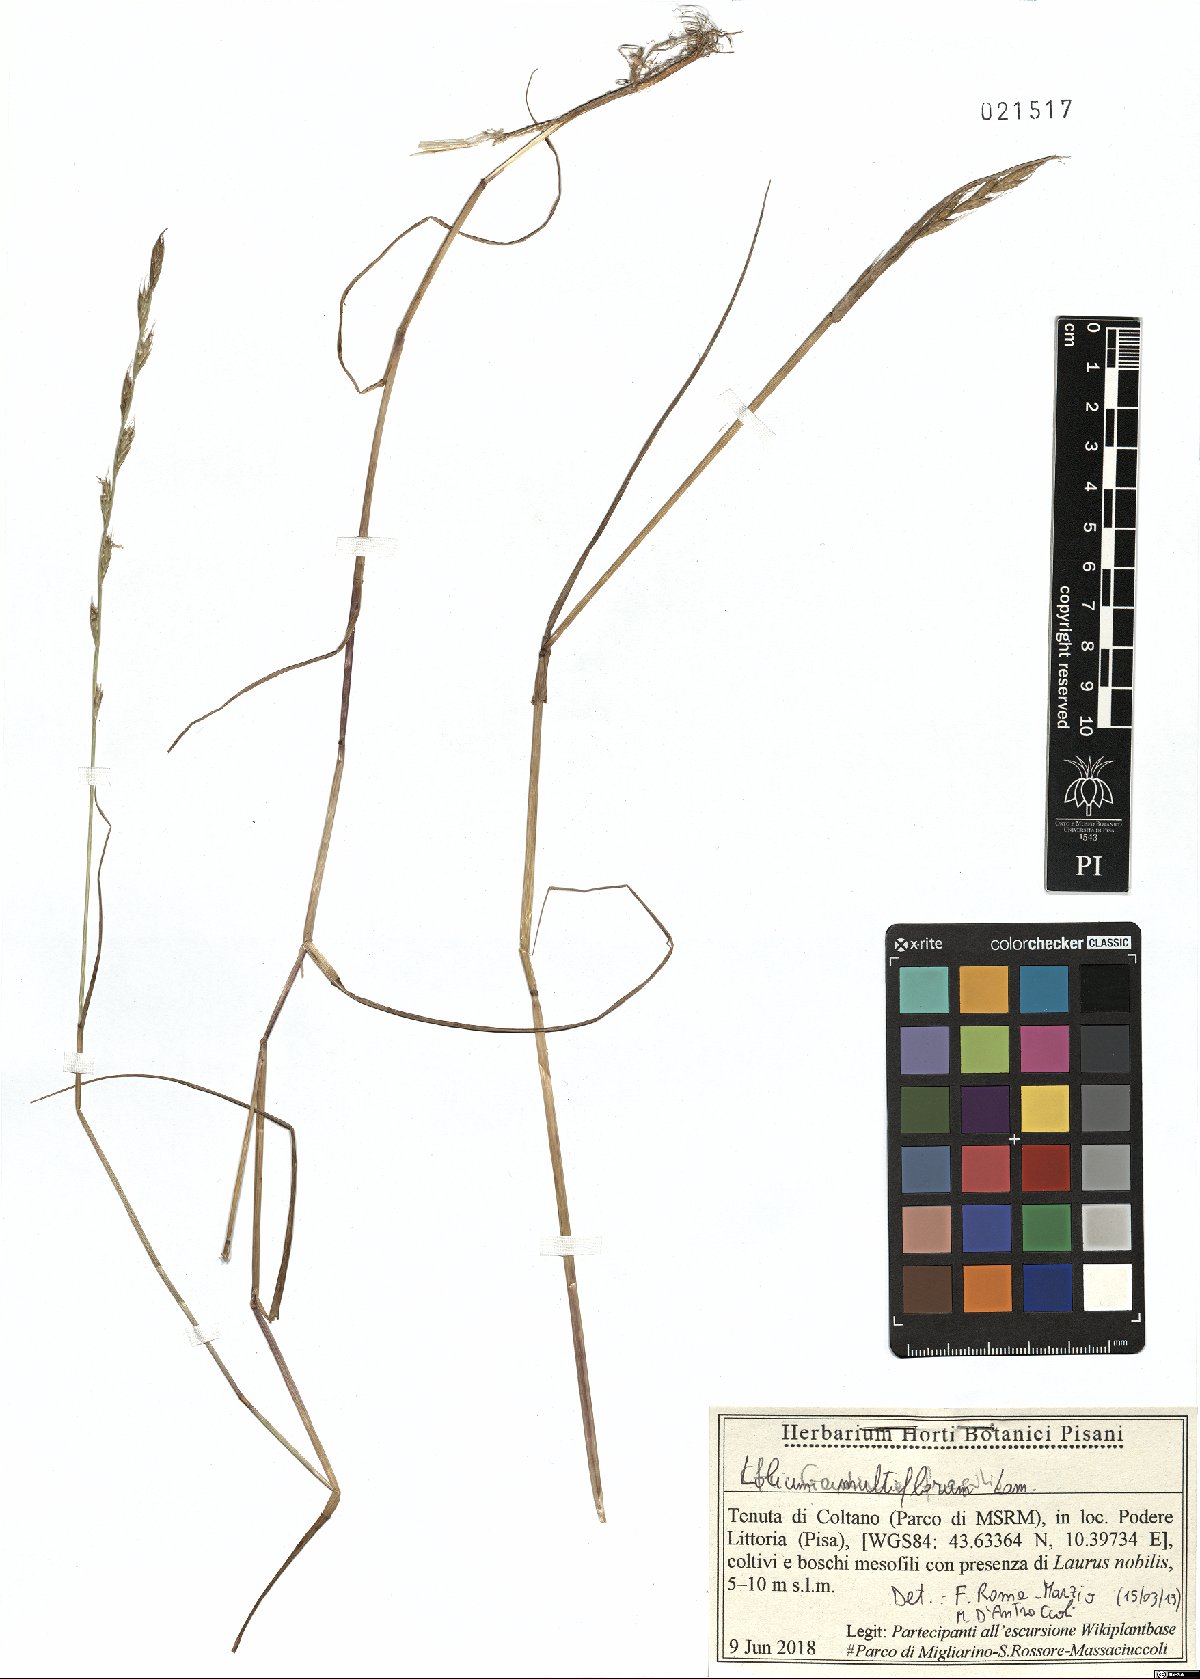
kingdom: Plantae
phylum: Tracheophyta
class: Liliopsida
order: Poales
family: Poaceae
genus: Lolium
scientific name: Lolium multiflorum
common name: Annual ryegrass
